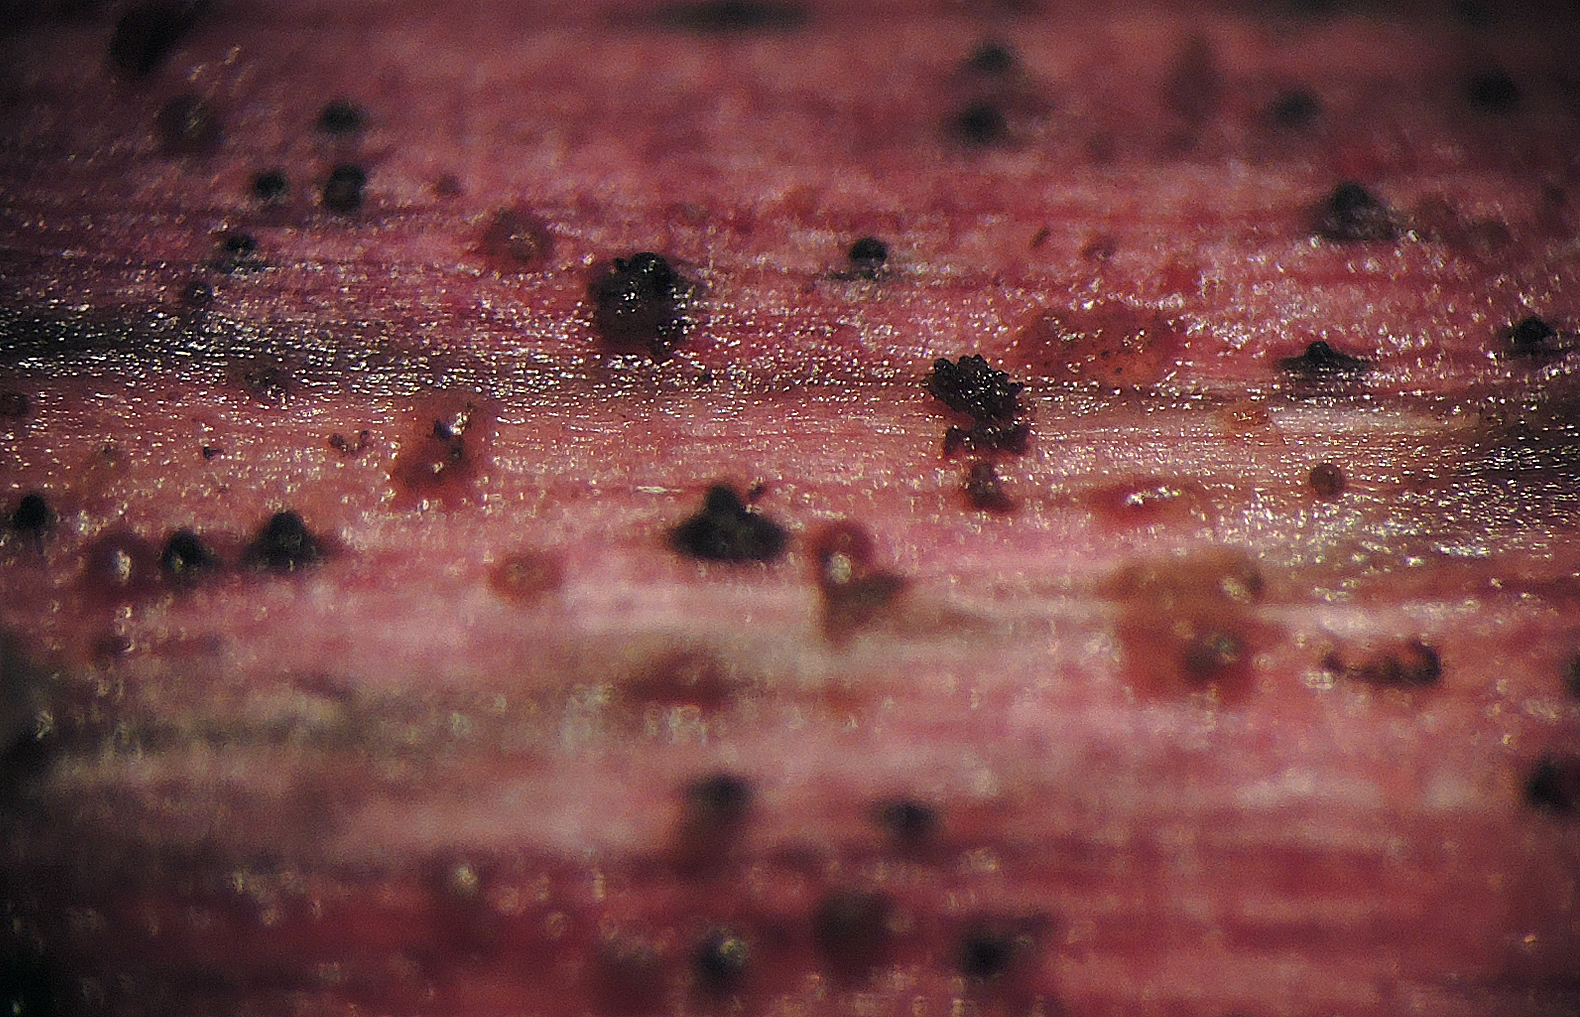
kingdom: Fungi
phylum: Ascomycota
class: Dothideomycetes
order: Pleosporales
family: Amniculicolaceae
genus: Murispora
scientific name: Murispora rubicunda ter
